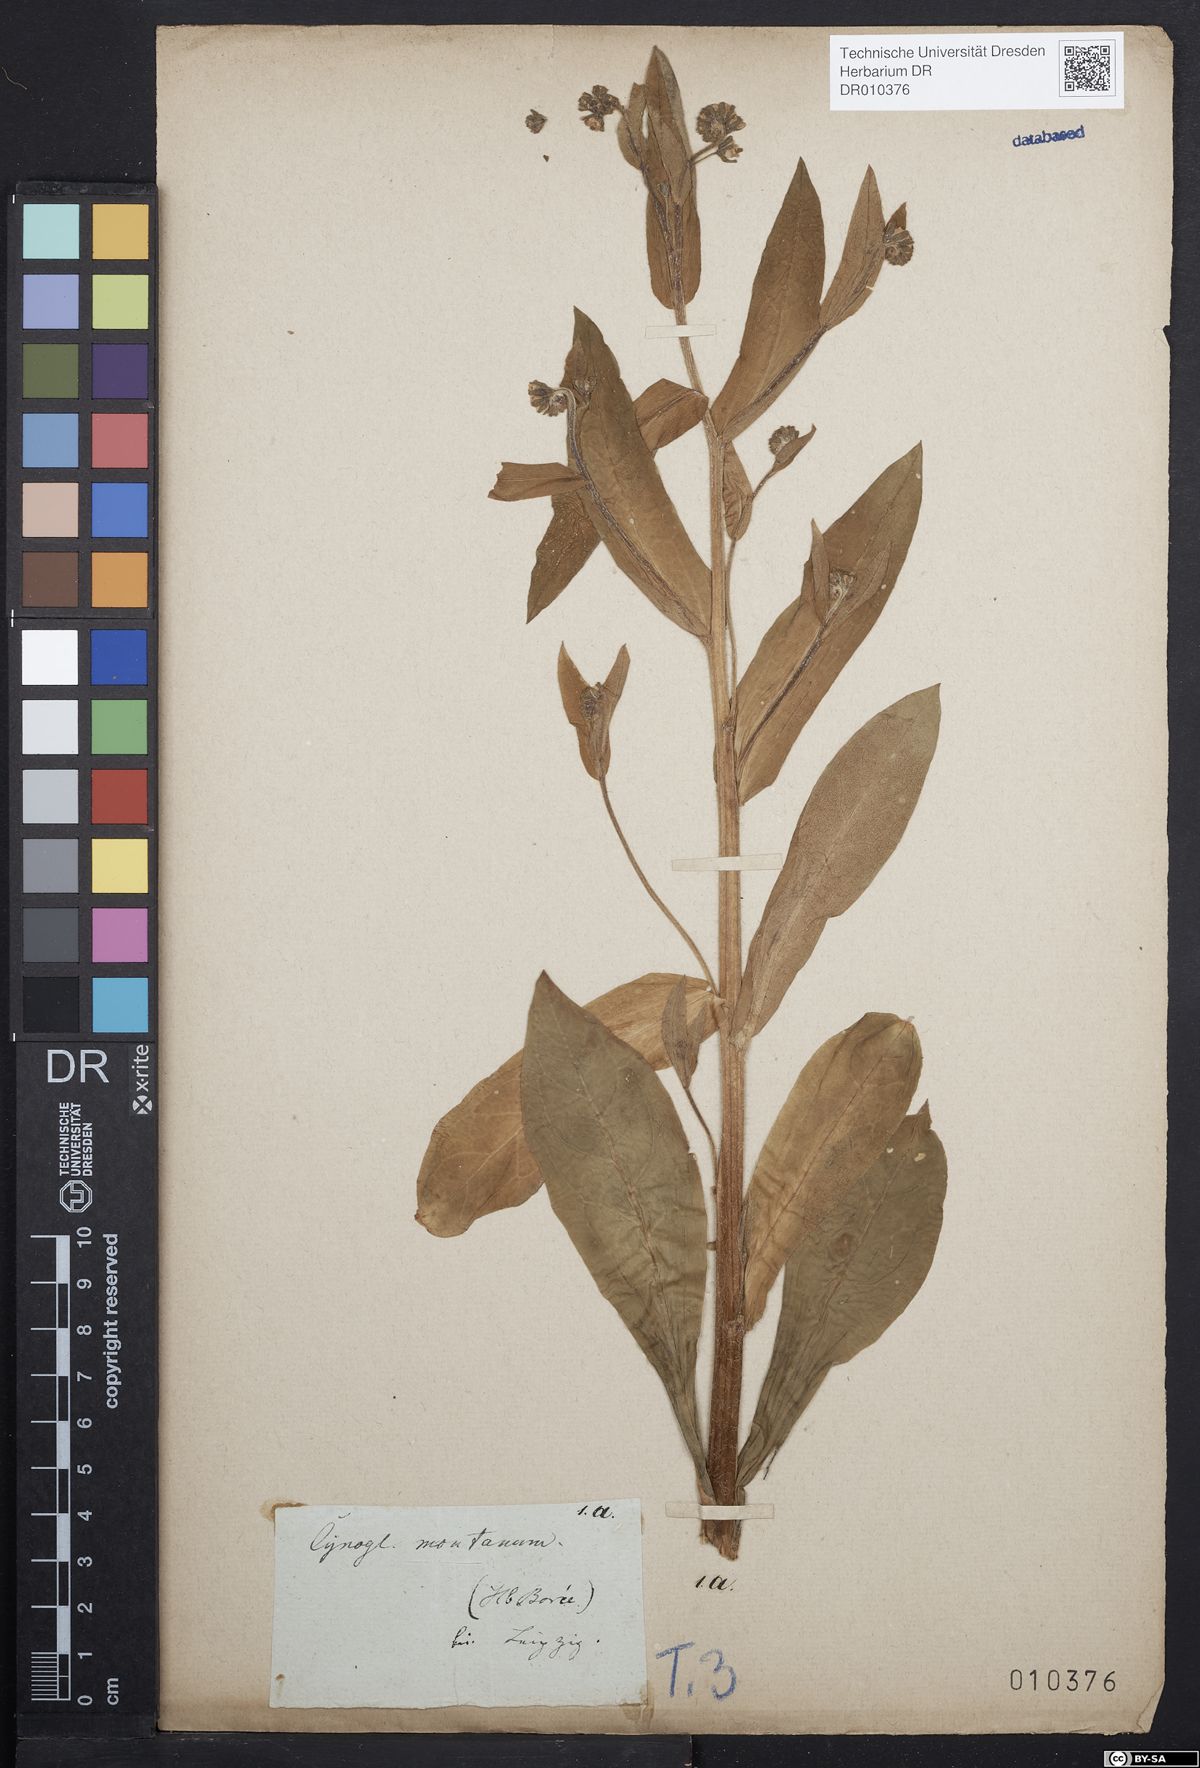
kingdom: Plantae
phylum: Tracheophyta
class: Magnoliopsida
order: Boraginales
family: Boraginaceae
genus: Cynoglossum
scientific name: Cynoglossum germanicum
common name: Green hound's-tongue
